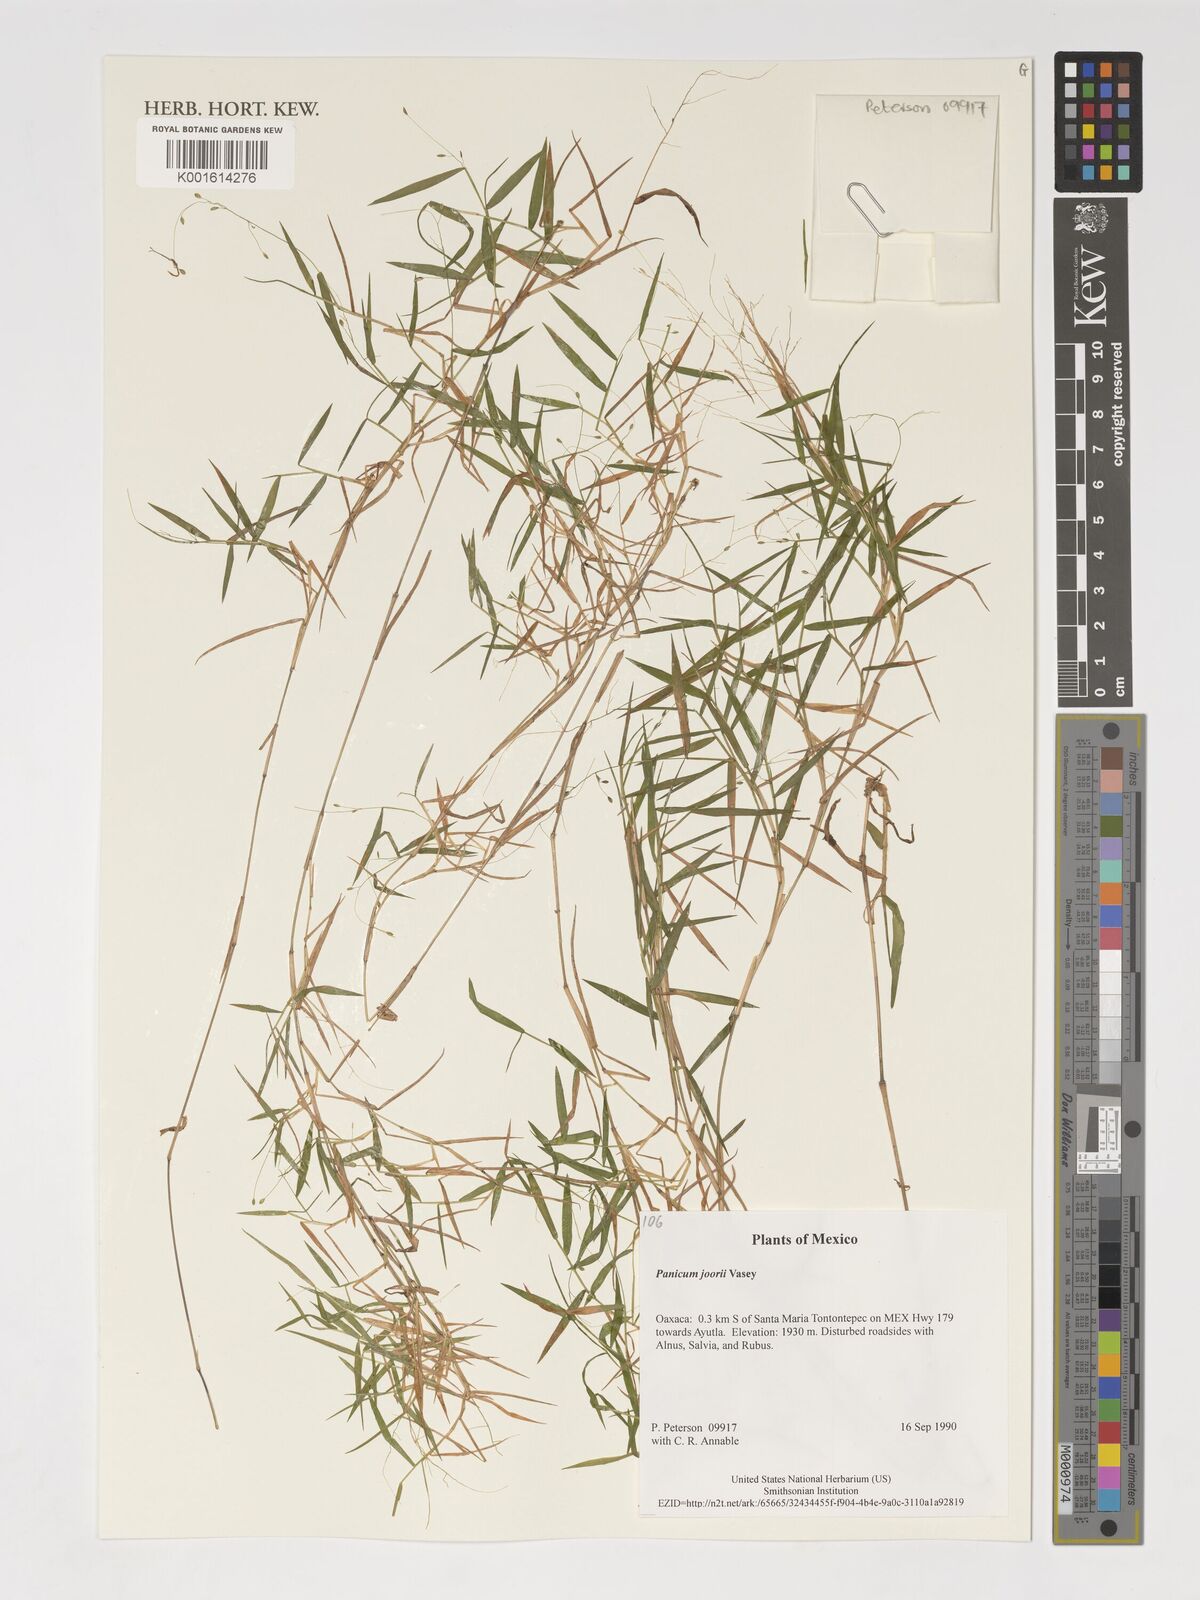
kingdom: Plantae
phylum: Tracheophyta
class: Liliopsida
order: Poales
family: Poaceae
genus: Dichanthelium
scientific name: Dichanthelium commutatum
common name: Variable witchgrass
